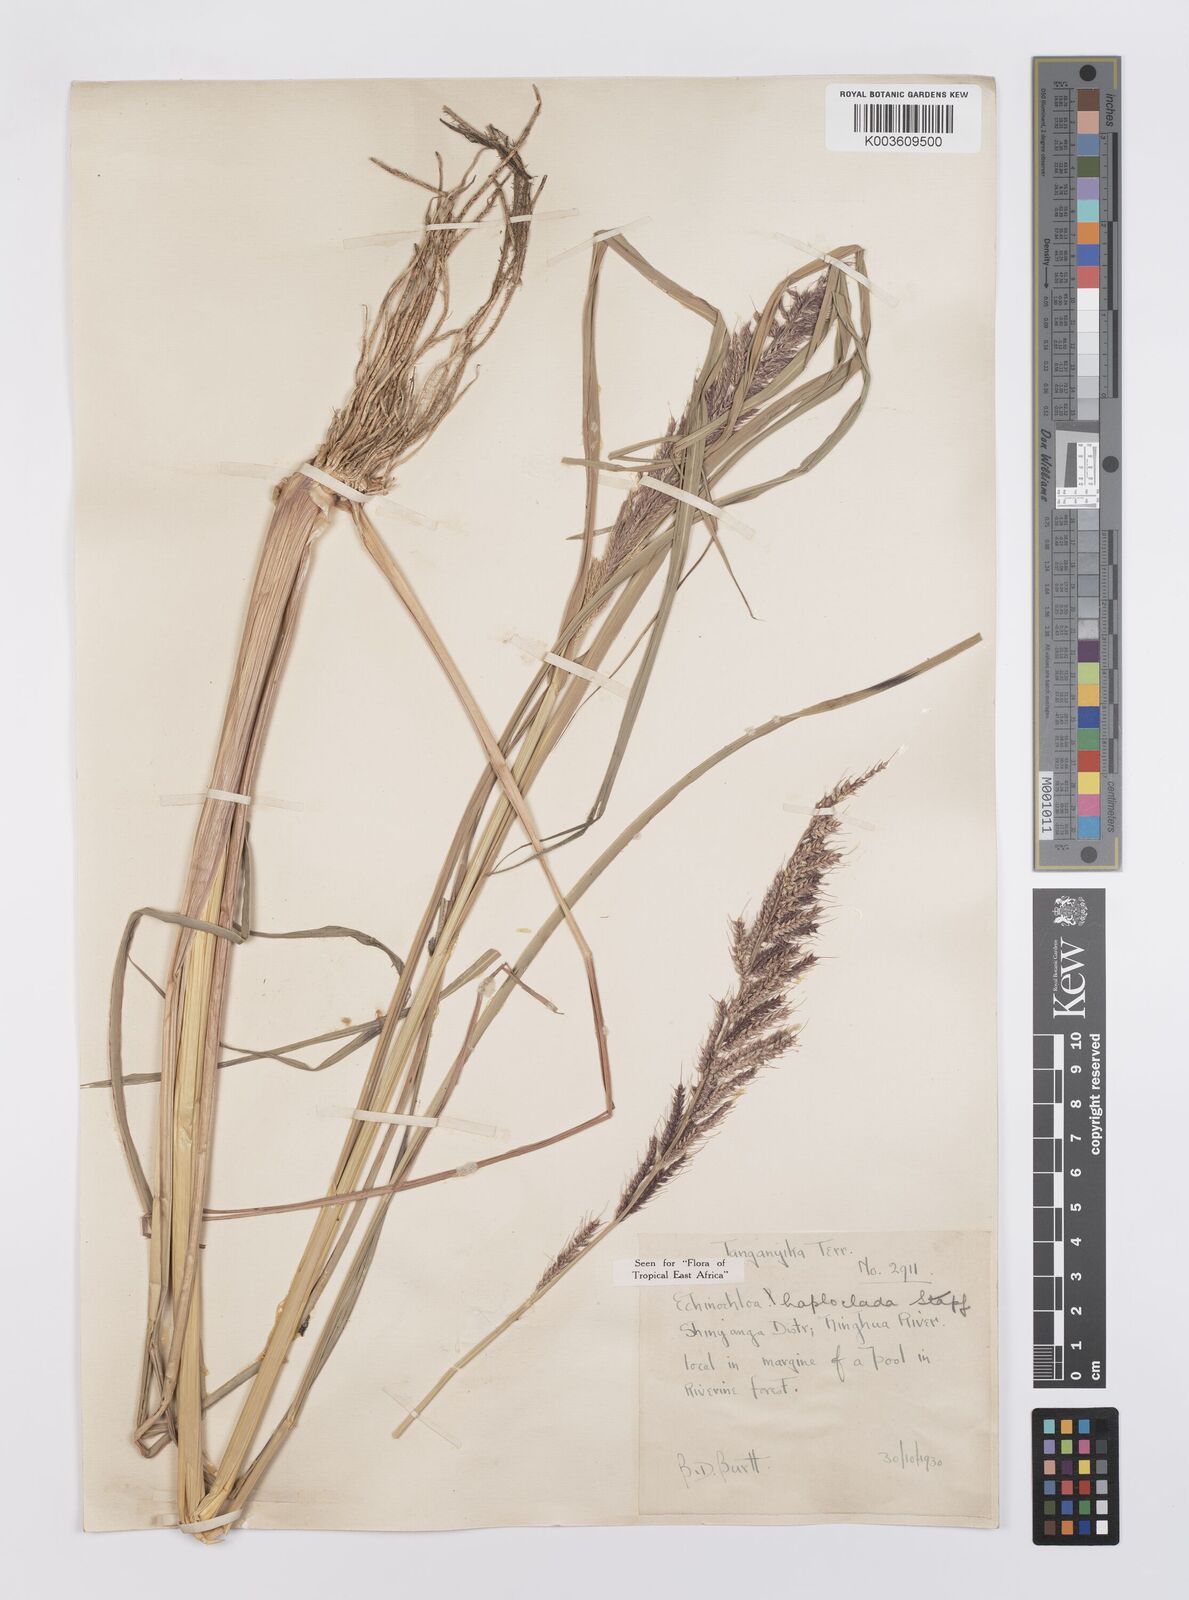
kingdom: Plantae
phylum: Tracheophyta
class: Liliopsida
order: Poales
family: Poaceae
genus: Echinochloa
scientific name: Echinochloa haploclada
